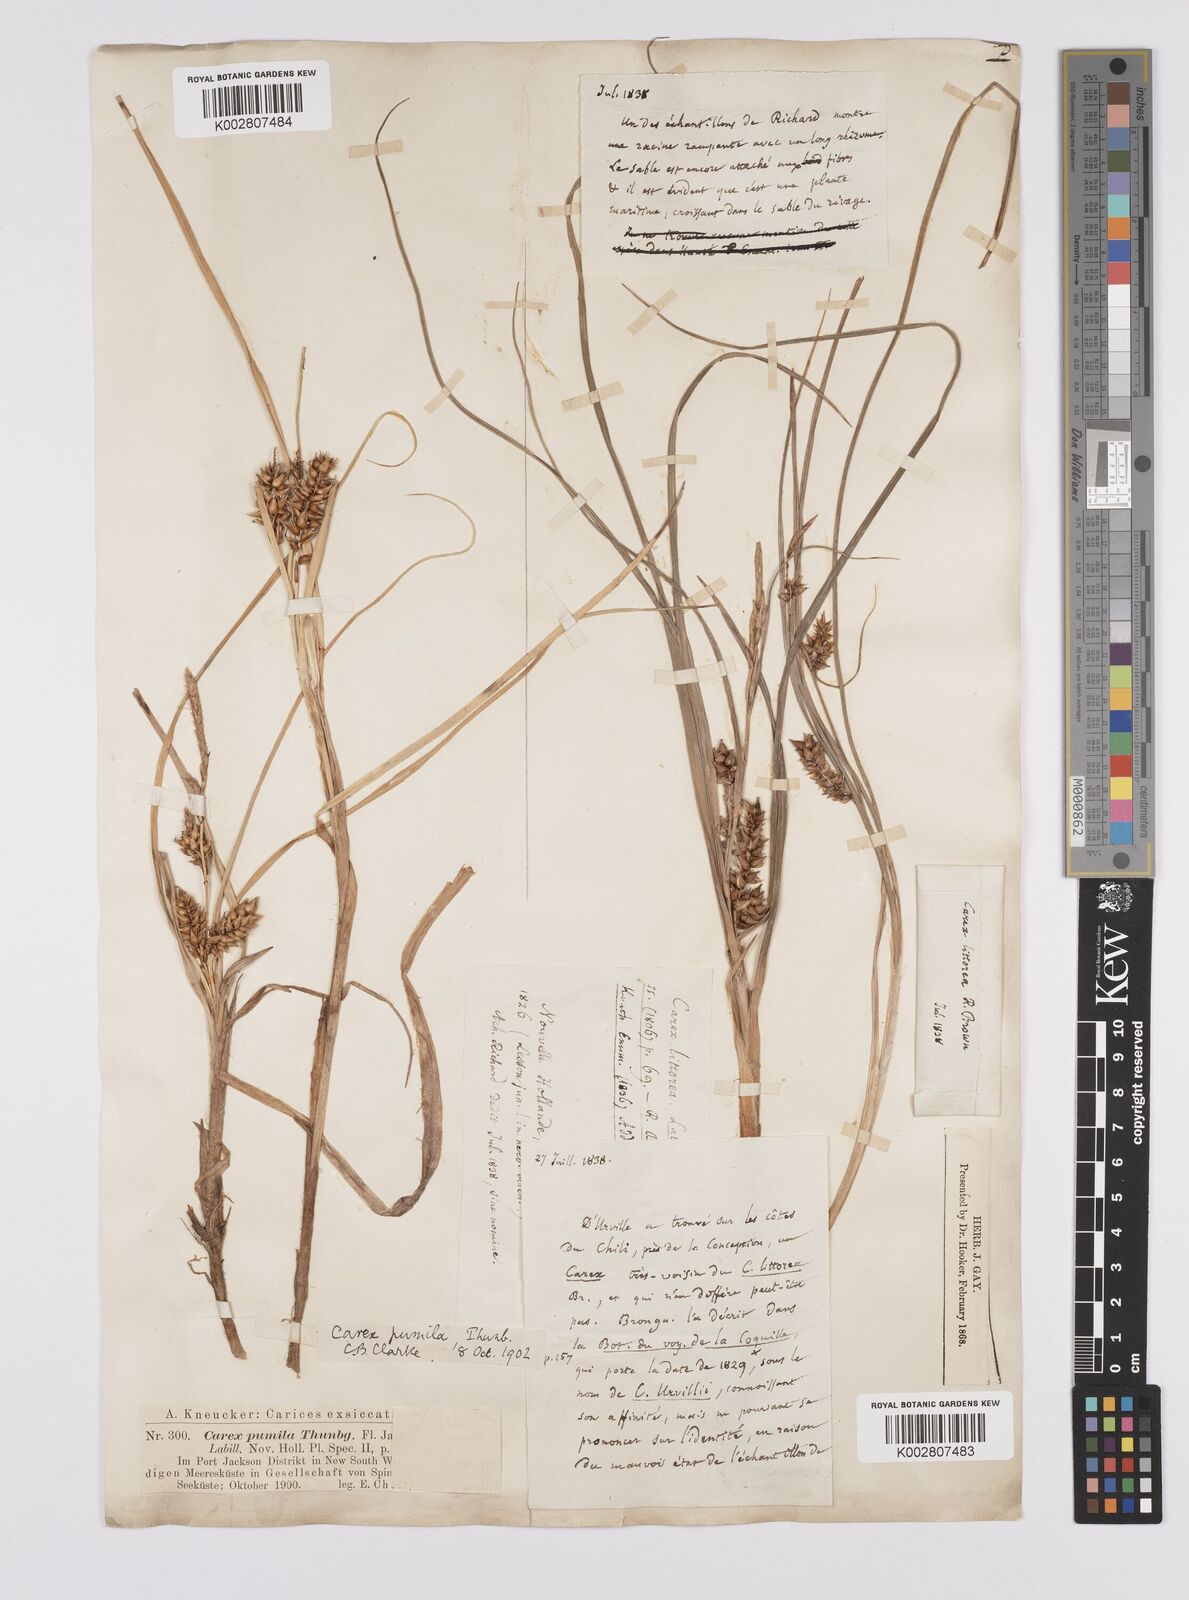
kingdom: Plantae
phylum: Tracheophyta
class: Liliopsida
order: Poales
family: Cyperaceae
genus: Carex
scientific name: Carex pumila
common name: Dwarf sedge
